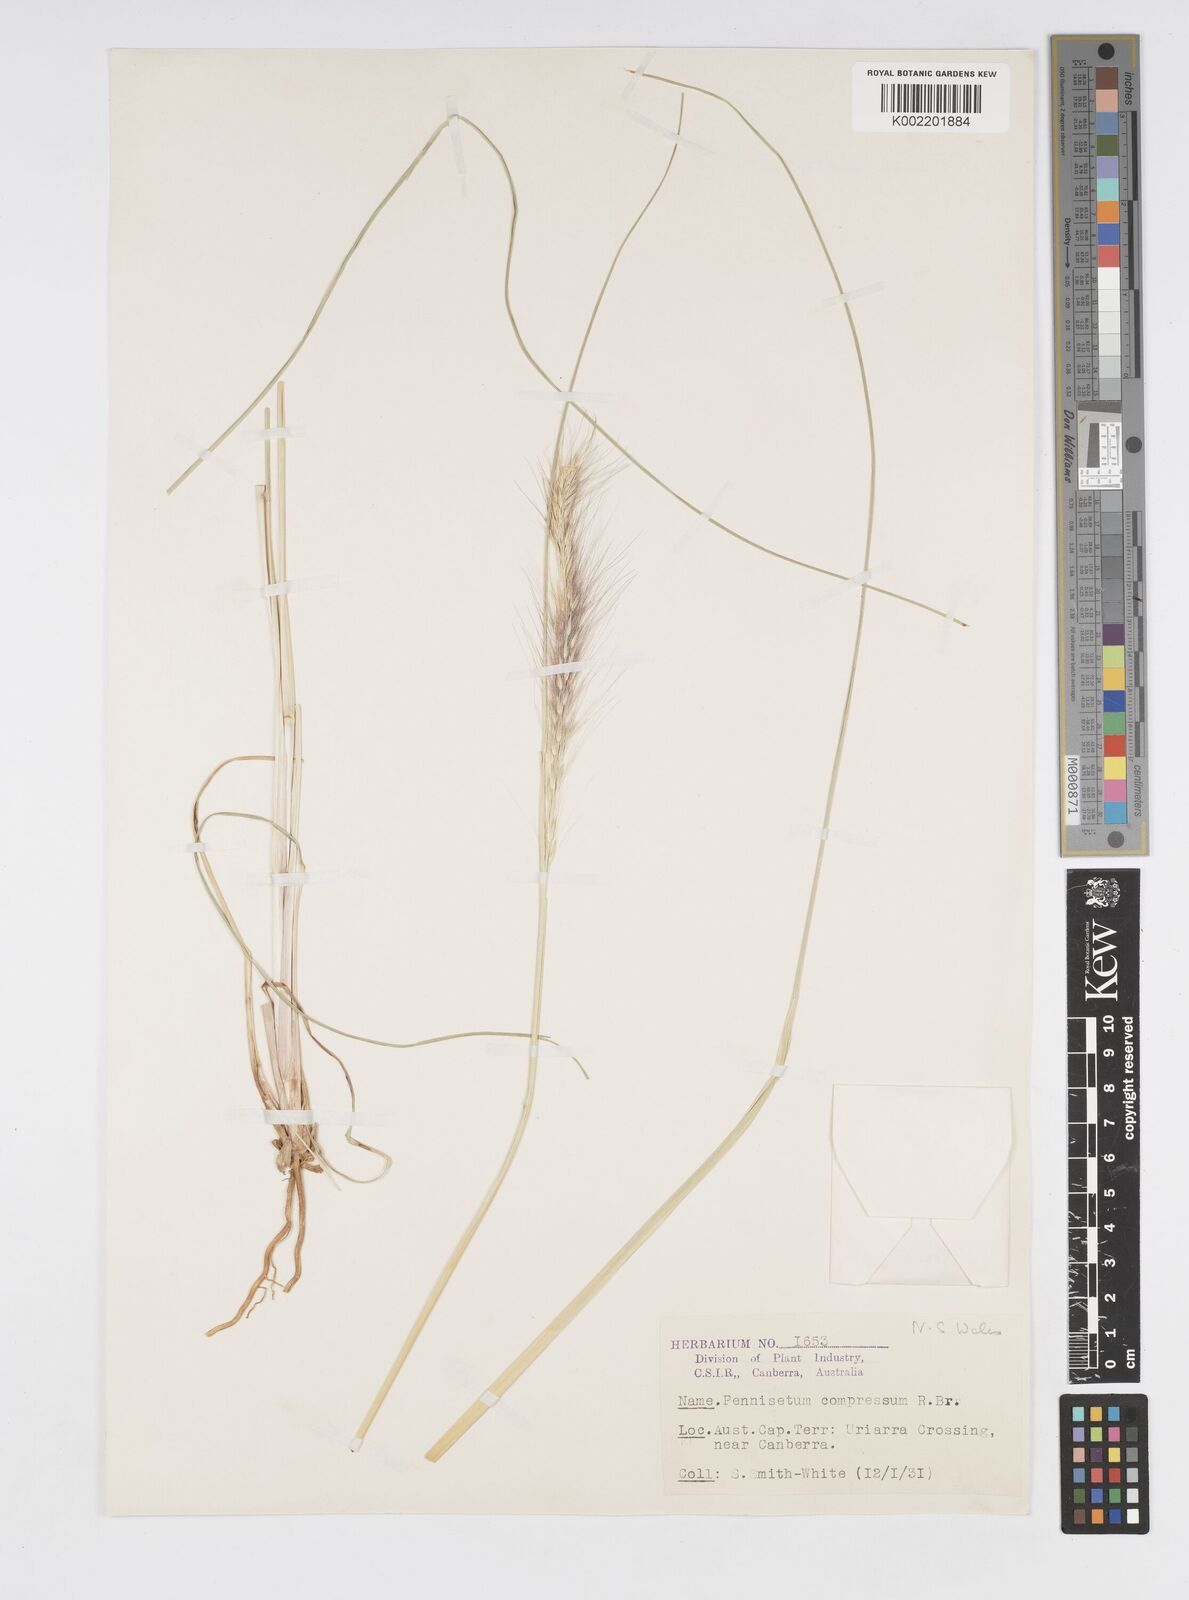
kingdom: Plantae
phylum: Tracheophyta
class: Liliopsida
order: Poales
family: Poaceae
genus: Cenchrus
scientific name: Cenchrus alopecuroides
